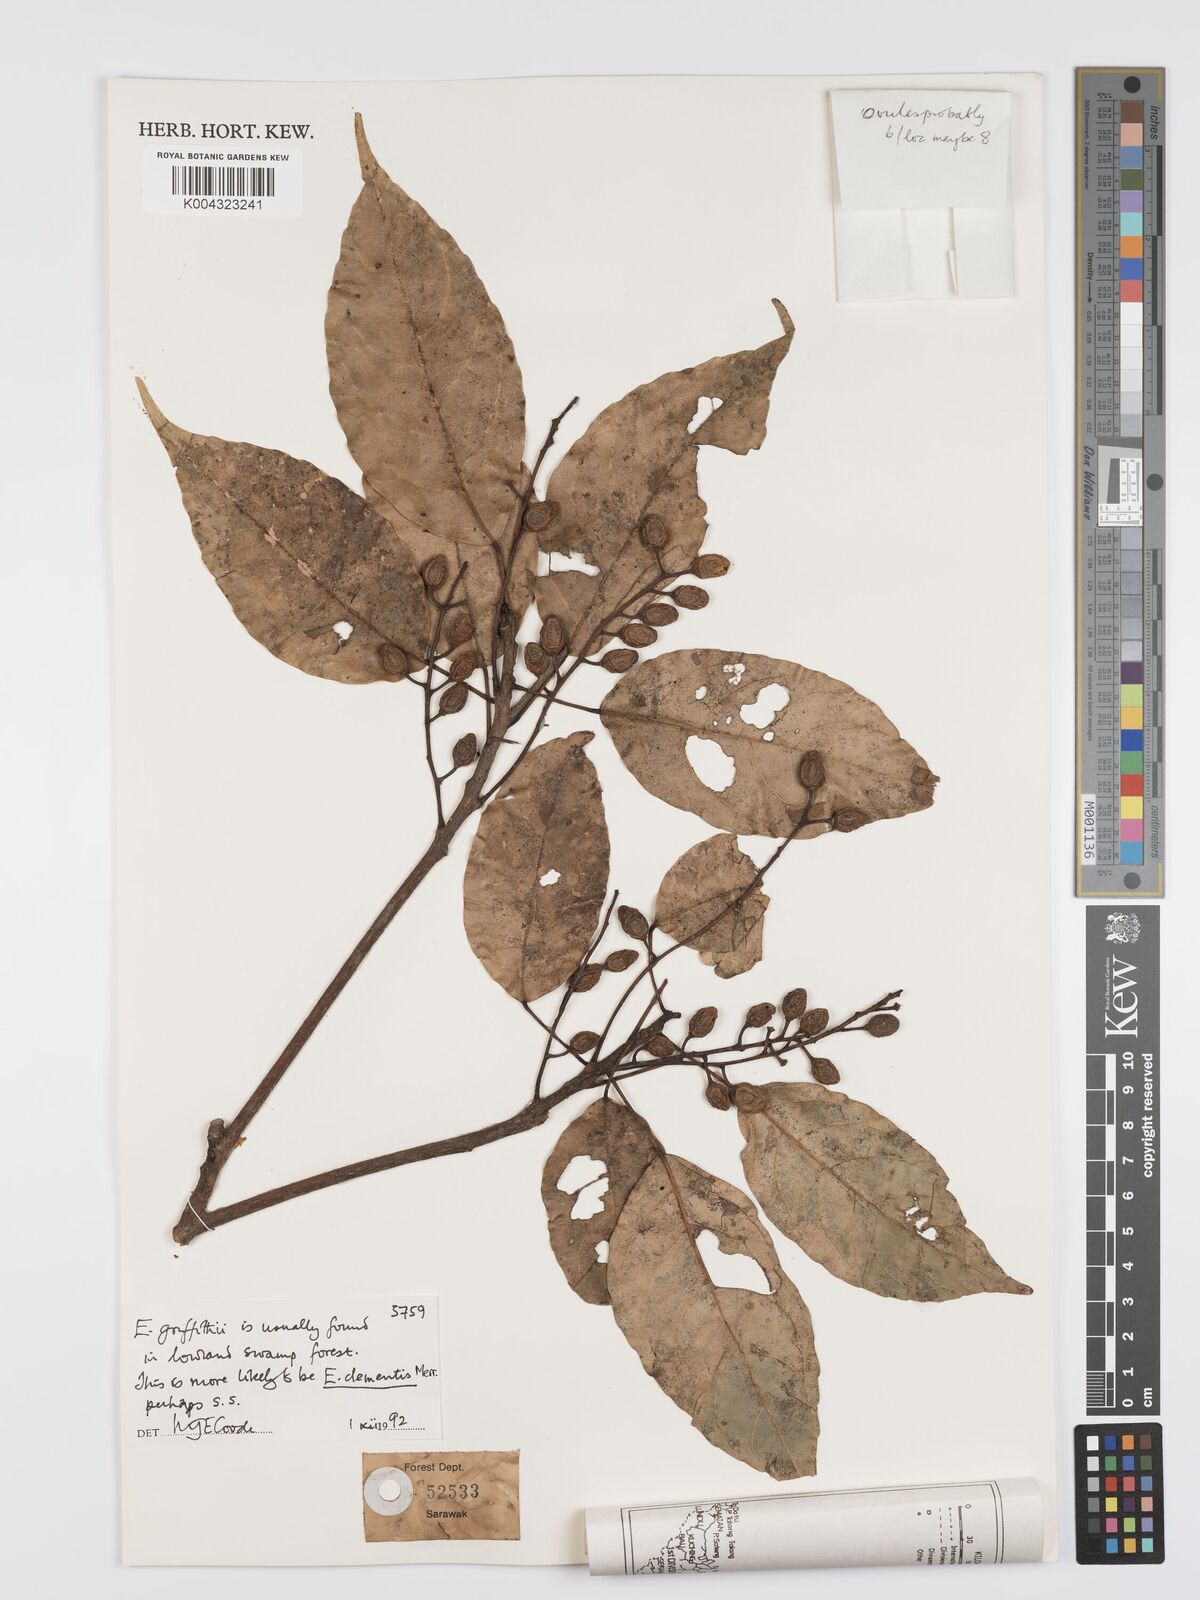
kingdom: Plantae
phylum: Tracheophyta
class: Magnoliopsida
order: Oxalidales
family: Elaeocarpaceae
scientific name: Elaeocarpaceae
